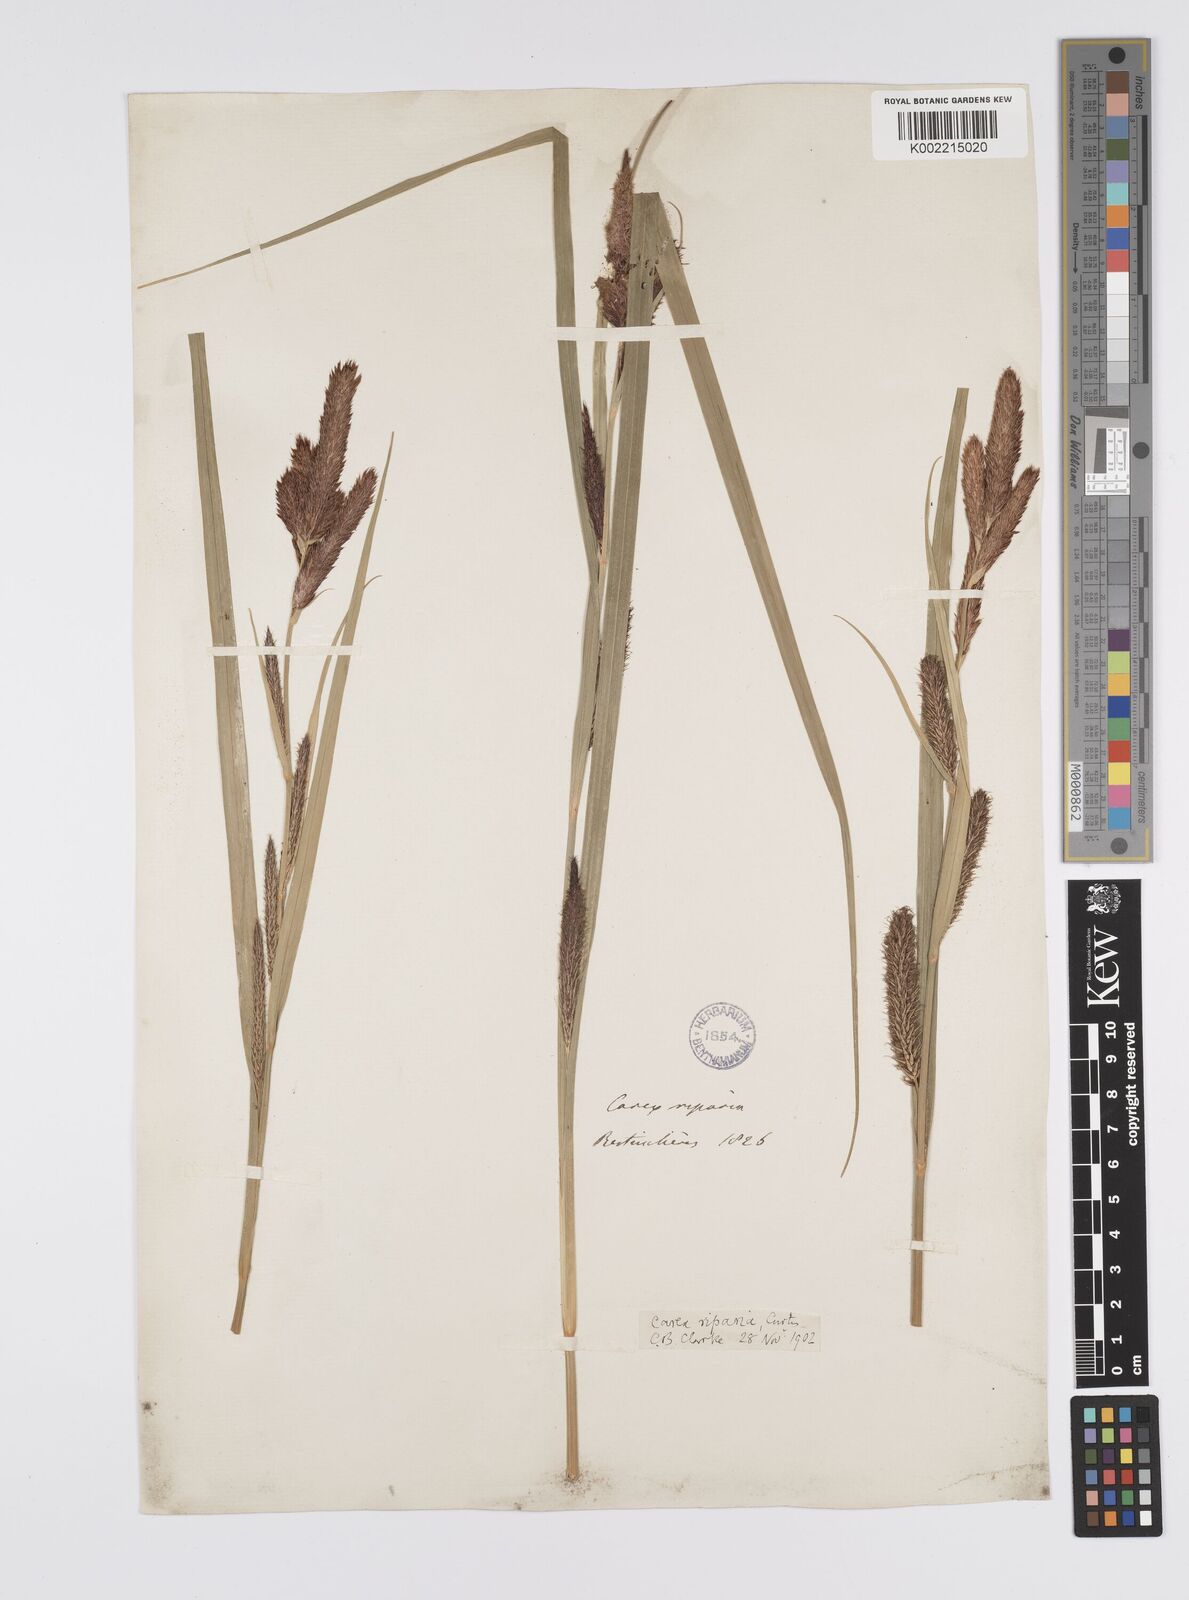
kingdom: Plantae
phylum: Tracheophyta
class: Liliopsida
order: Poales
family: Cyperaceae
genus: Carex
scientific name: Carex riparia
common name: Greater pond-sedge
